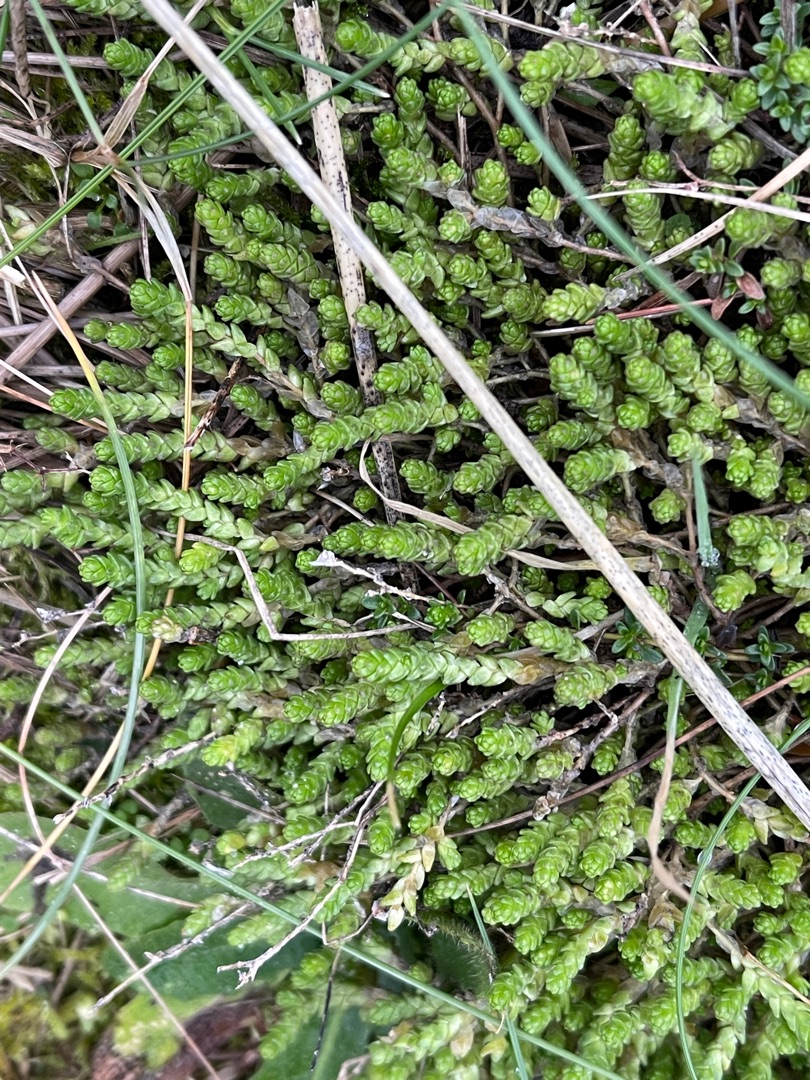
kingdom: Plantae
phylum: Tracheophyta
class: Magnoliopsida
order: Saxifragales
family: Crassulaceae
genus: Sedum
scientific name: Sedum acre
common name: Bidende stenurt
